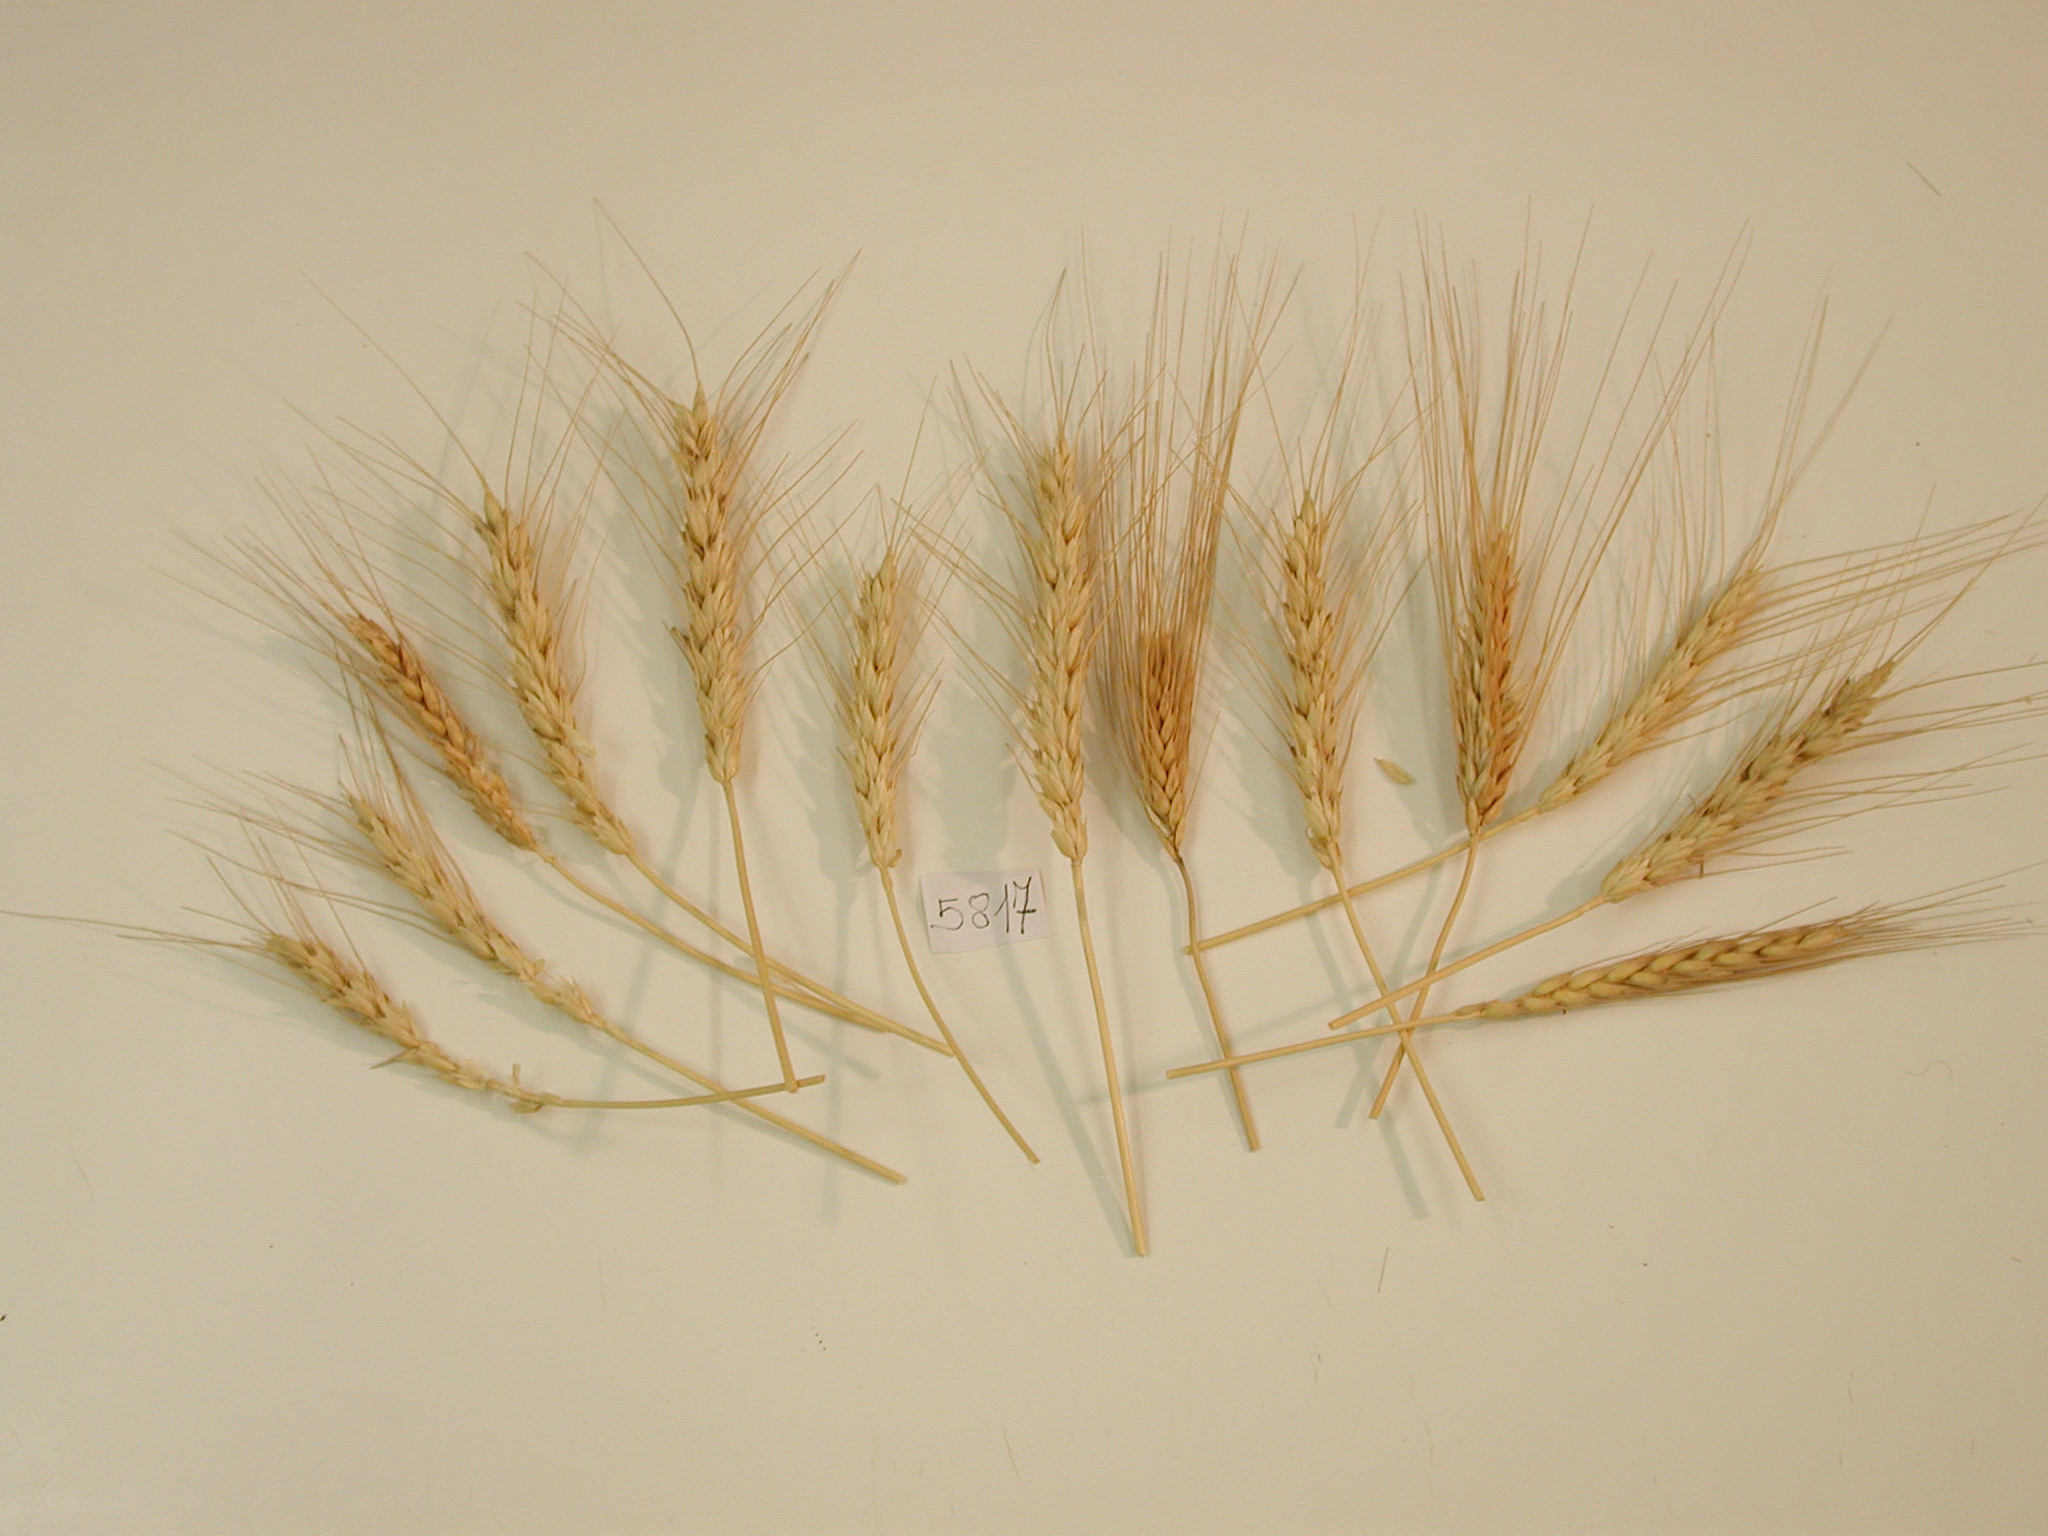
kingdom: Plantae
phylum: Tracheophyta
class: Liliopsida
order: Poales
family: Poaceae
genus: Triticum
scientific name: Triticum turgidum
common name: Wheat
